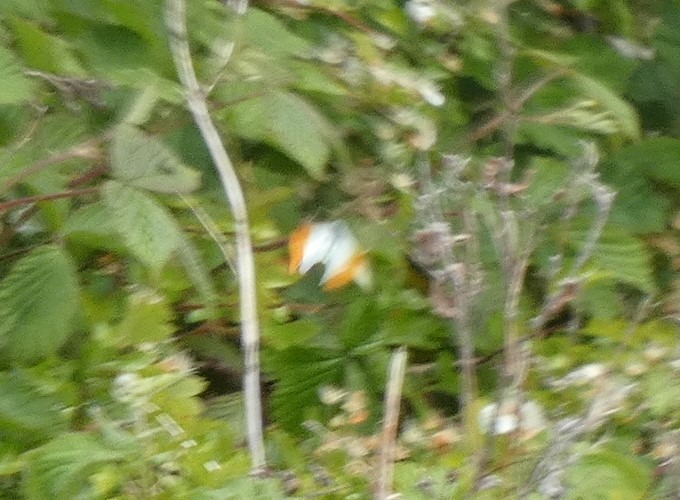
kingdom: Animalia
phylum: Arthropoda
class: Insecta
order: Lepidoptera
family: Pieridae
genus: Anthocharis
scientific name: Anthocharis cardamines
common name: Aurora
